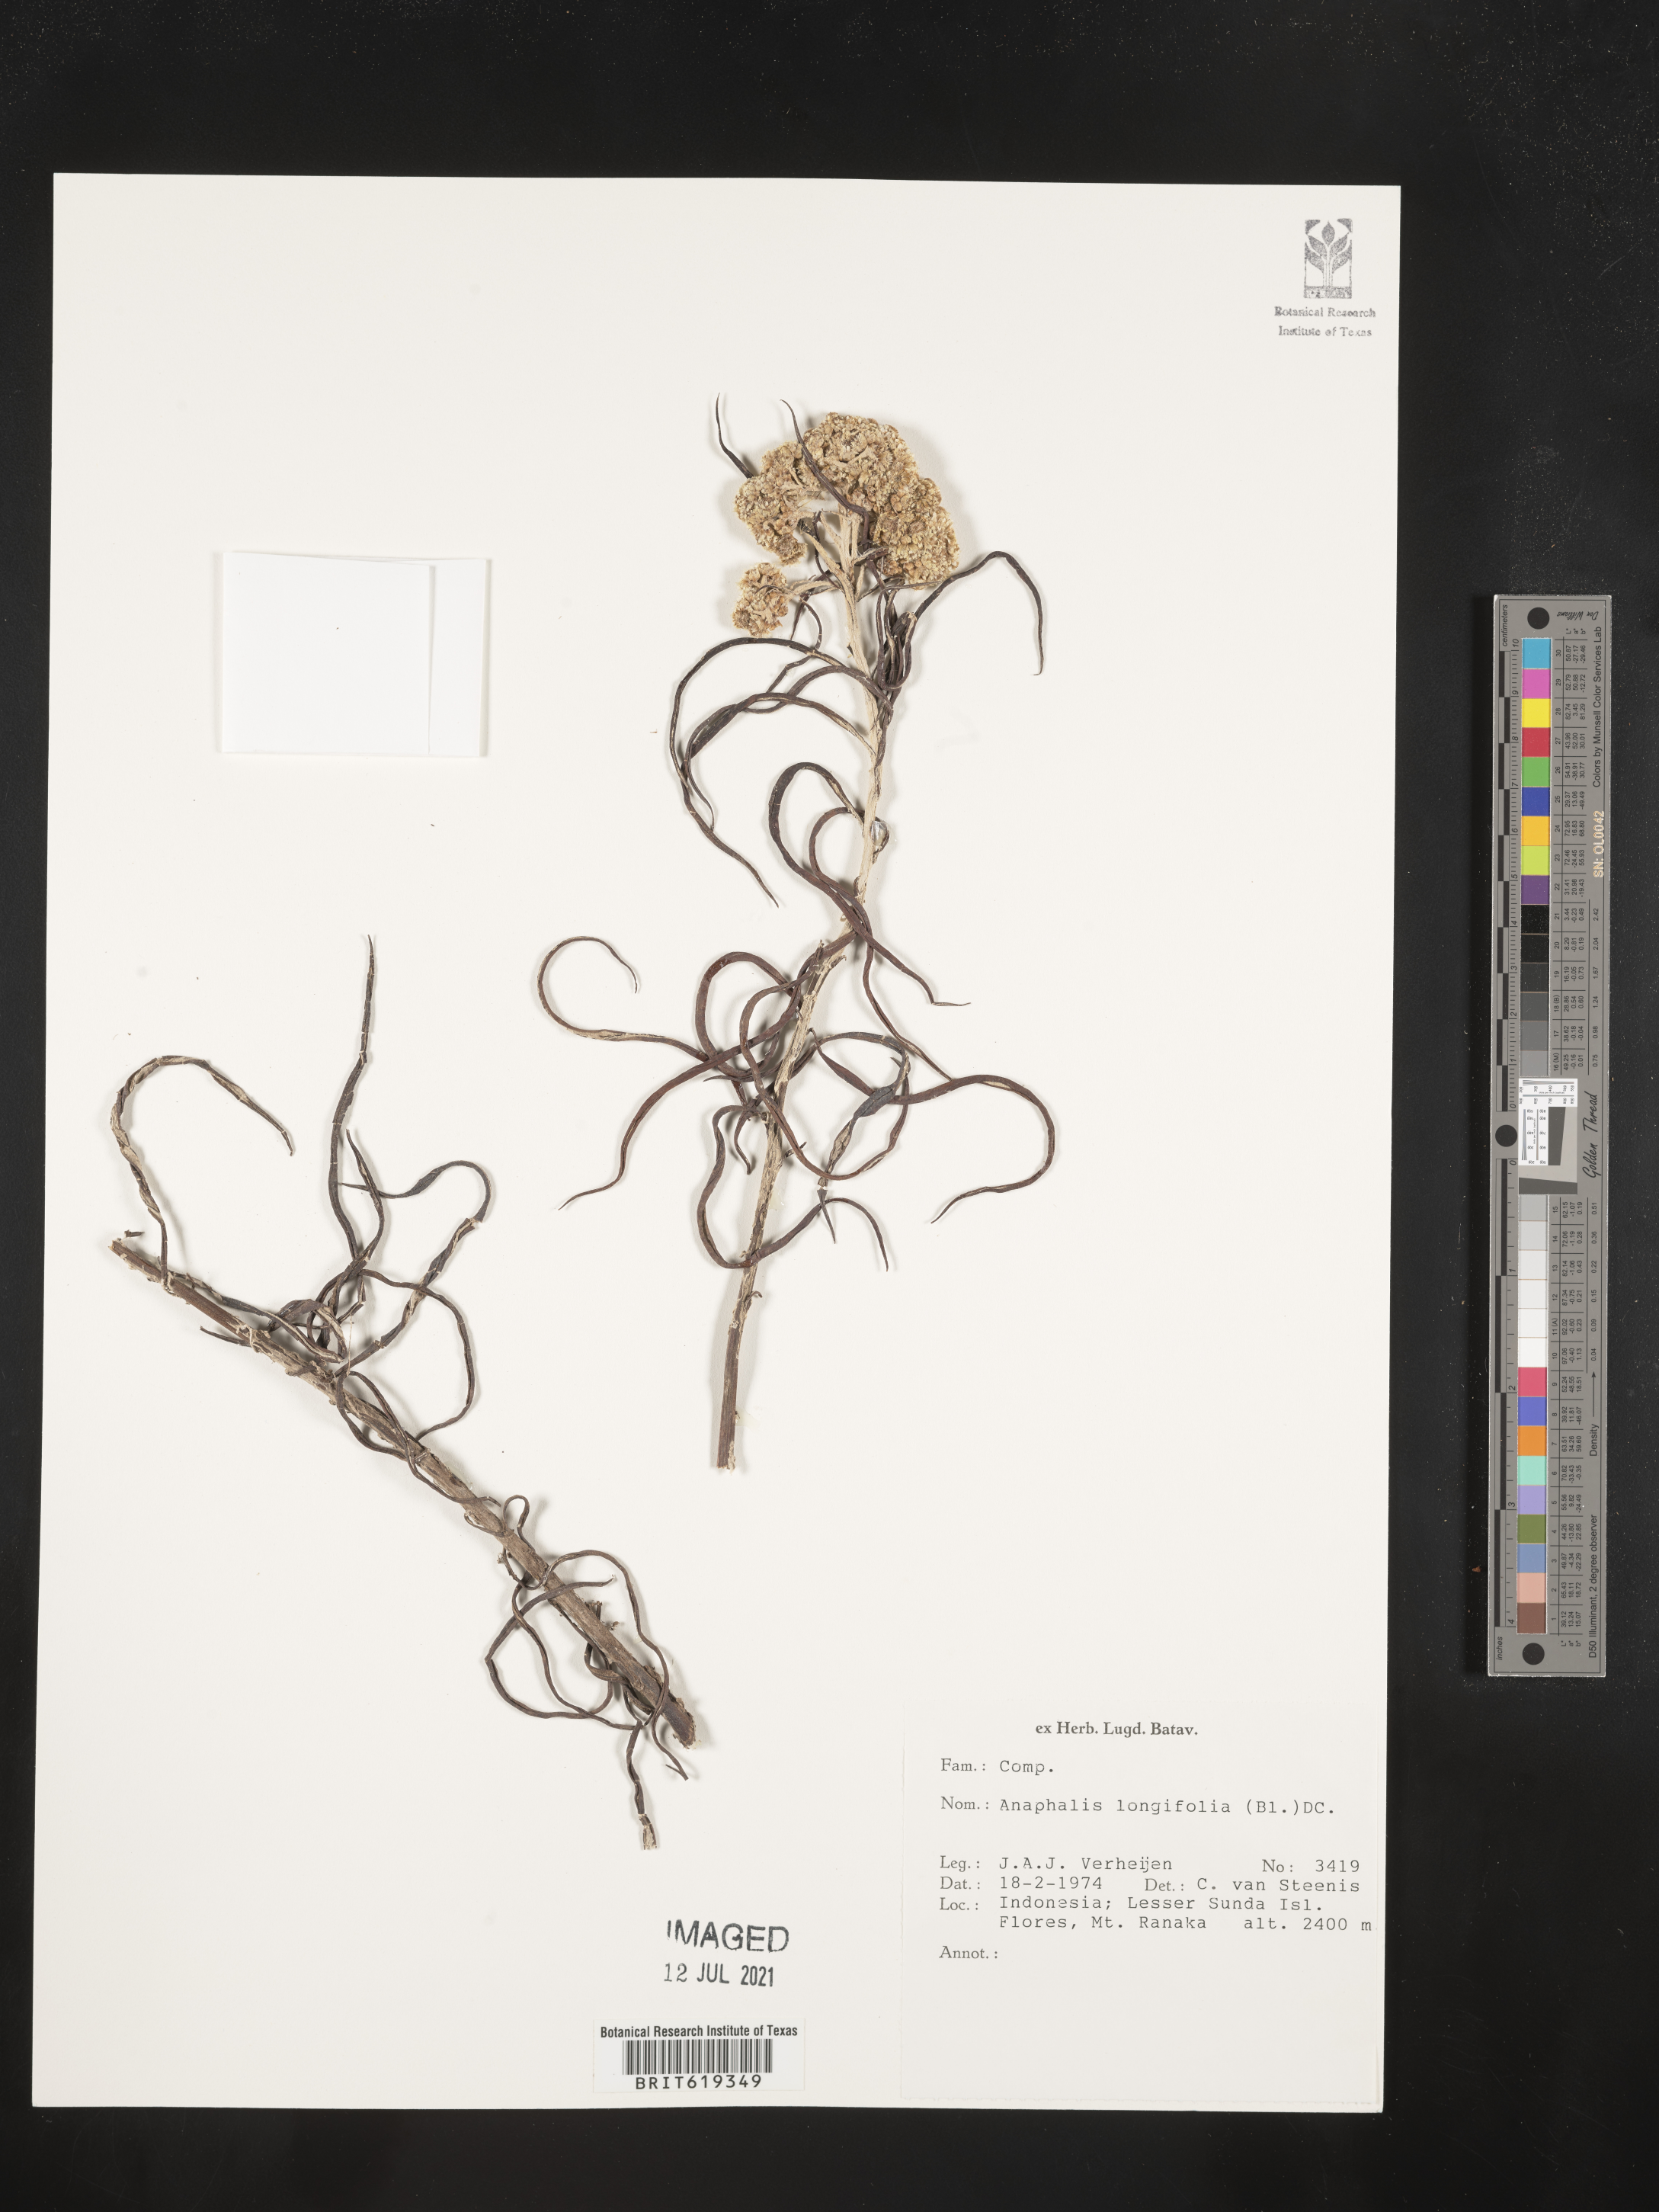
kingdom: Plantae
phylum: Tracheophyta
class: Magnoliopsida
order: Asterales
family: Asteraceae
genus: Anaphalis
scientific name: Anaphalis longifolia
